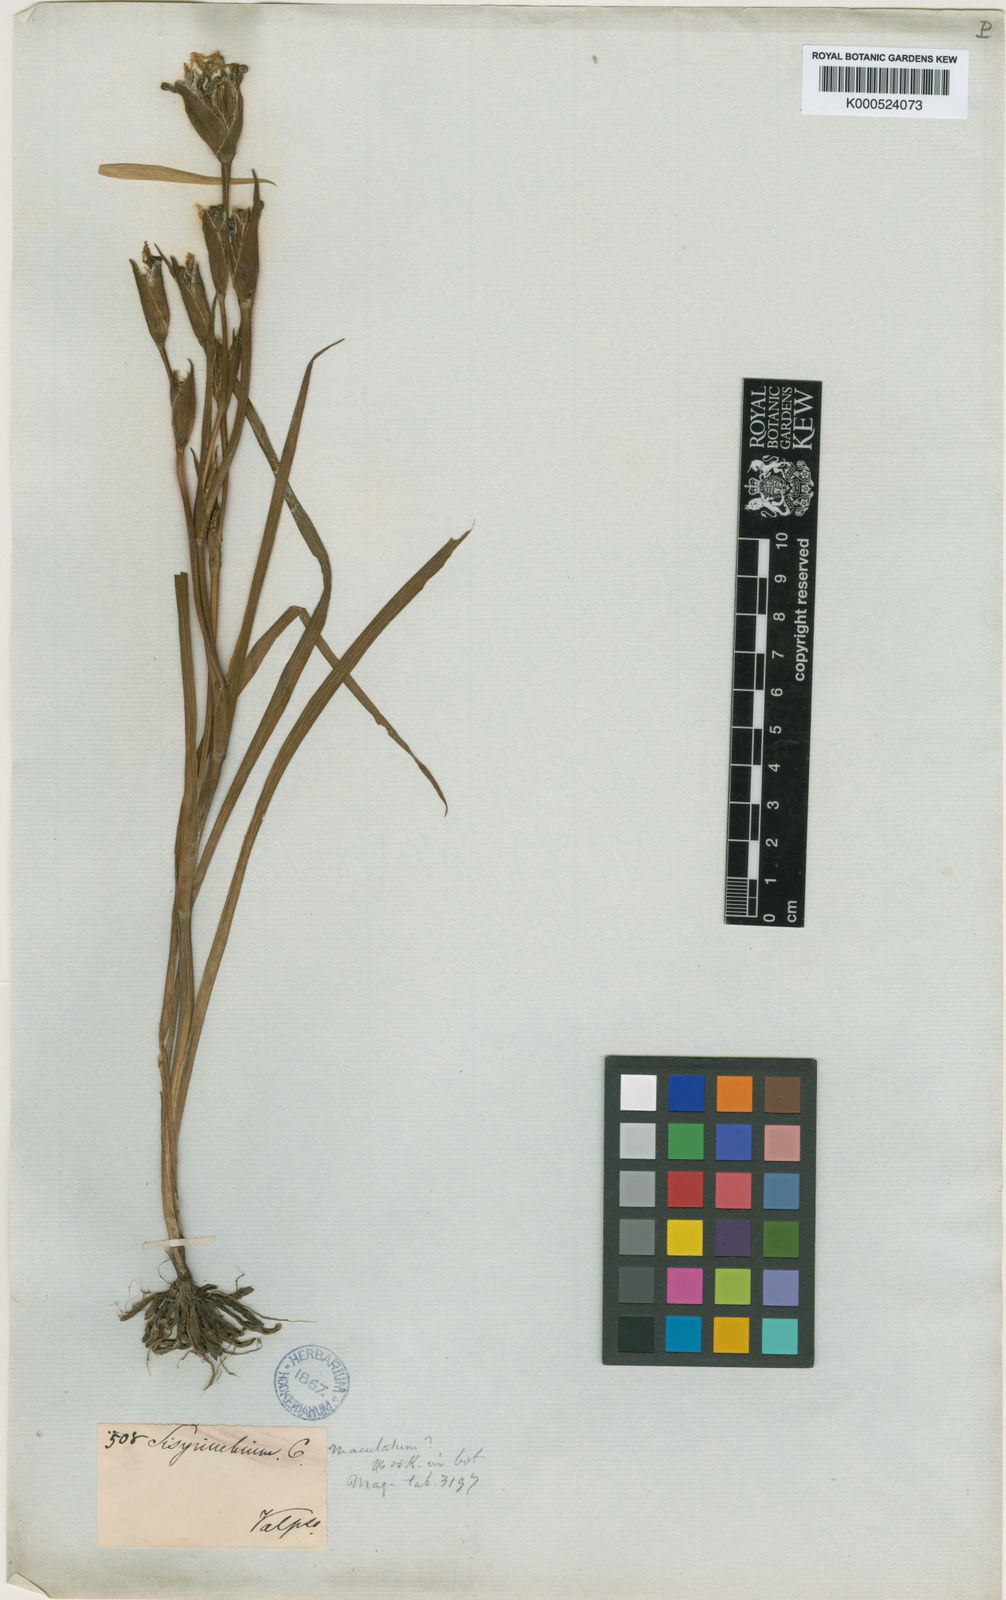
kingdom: Plantae
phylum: Tracheophyta
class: Liliopsida
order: Asparagales
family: Iridaceae
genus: Sisyrinchium
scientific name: Sisyrinchium graminifolium
